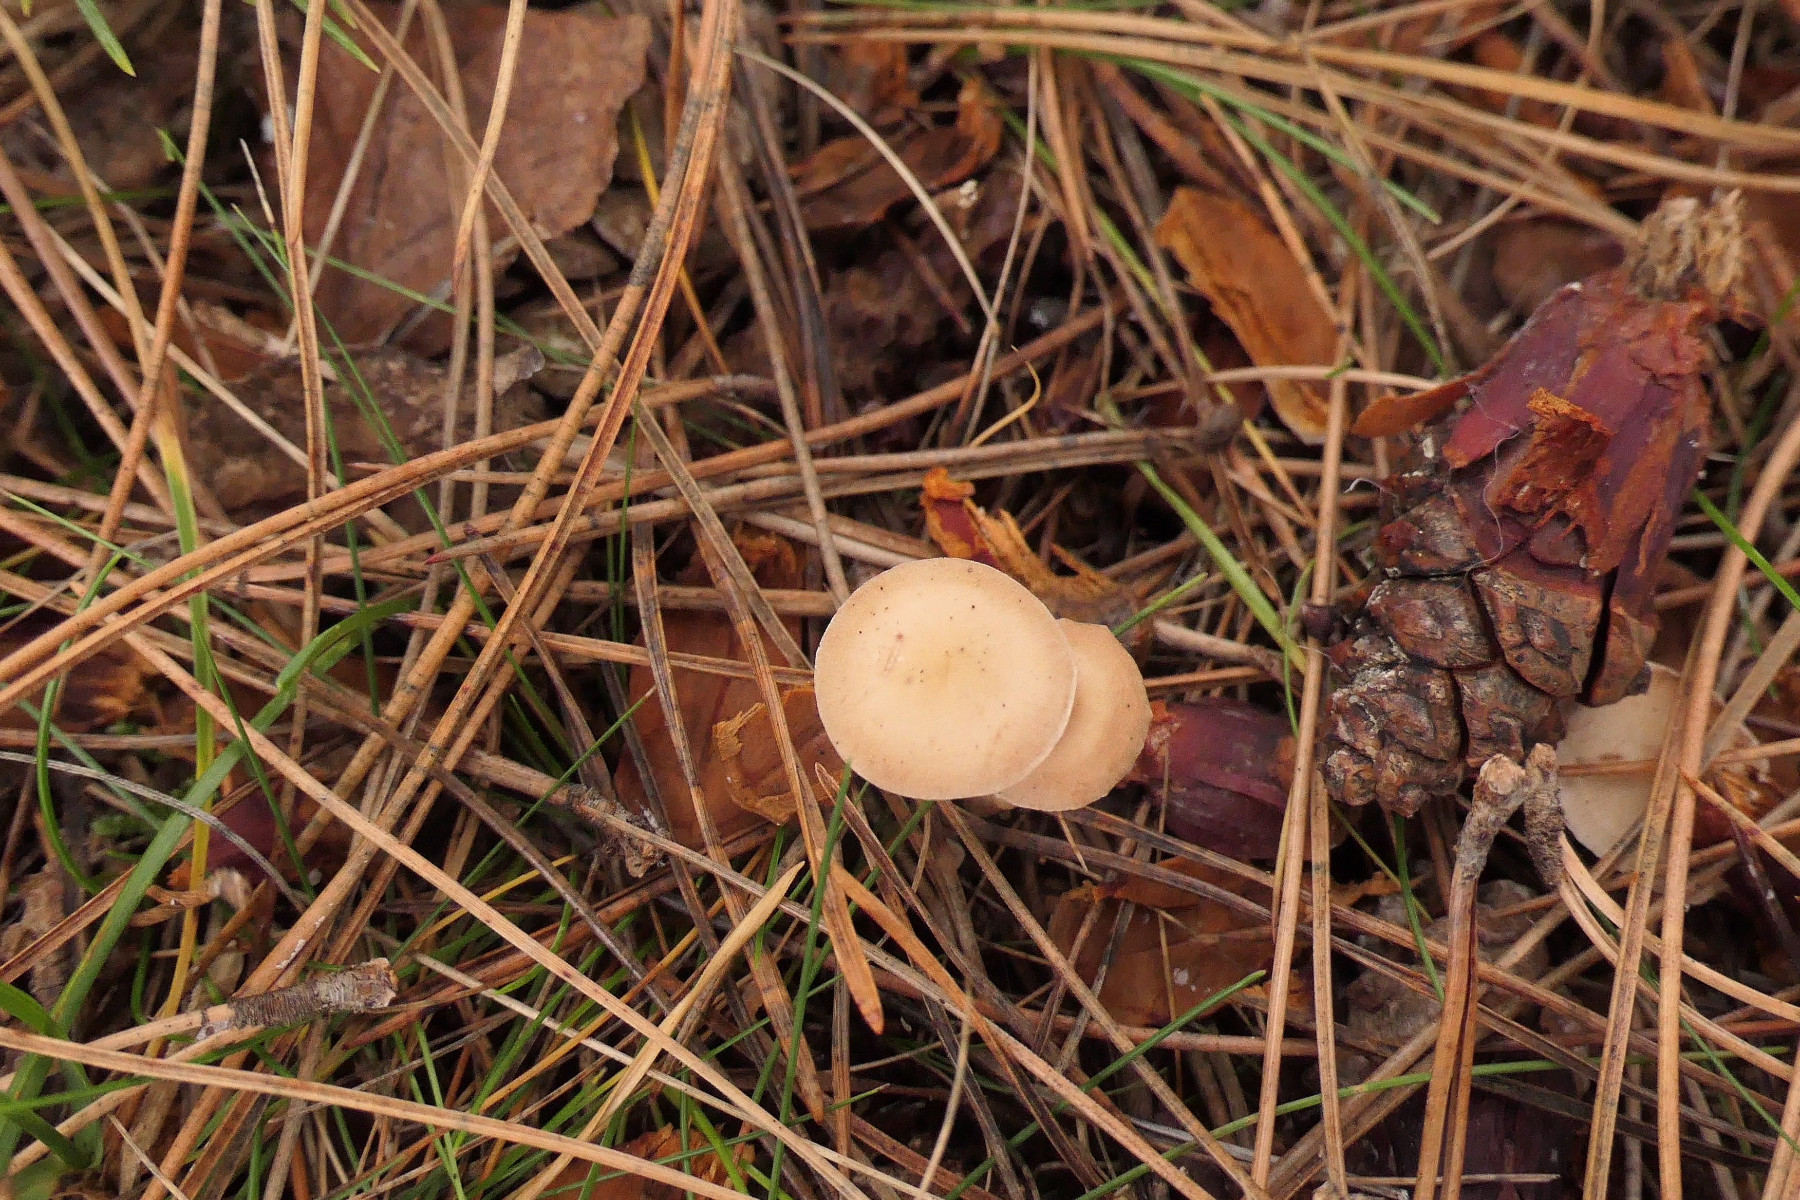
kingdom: Fungi
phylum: Basidiomycota
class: Agaricomycetes
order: Agaricales
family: Marasmiaceae
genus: Baeospora
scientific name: Baeospora myosura
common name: koglebruskhat
